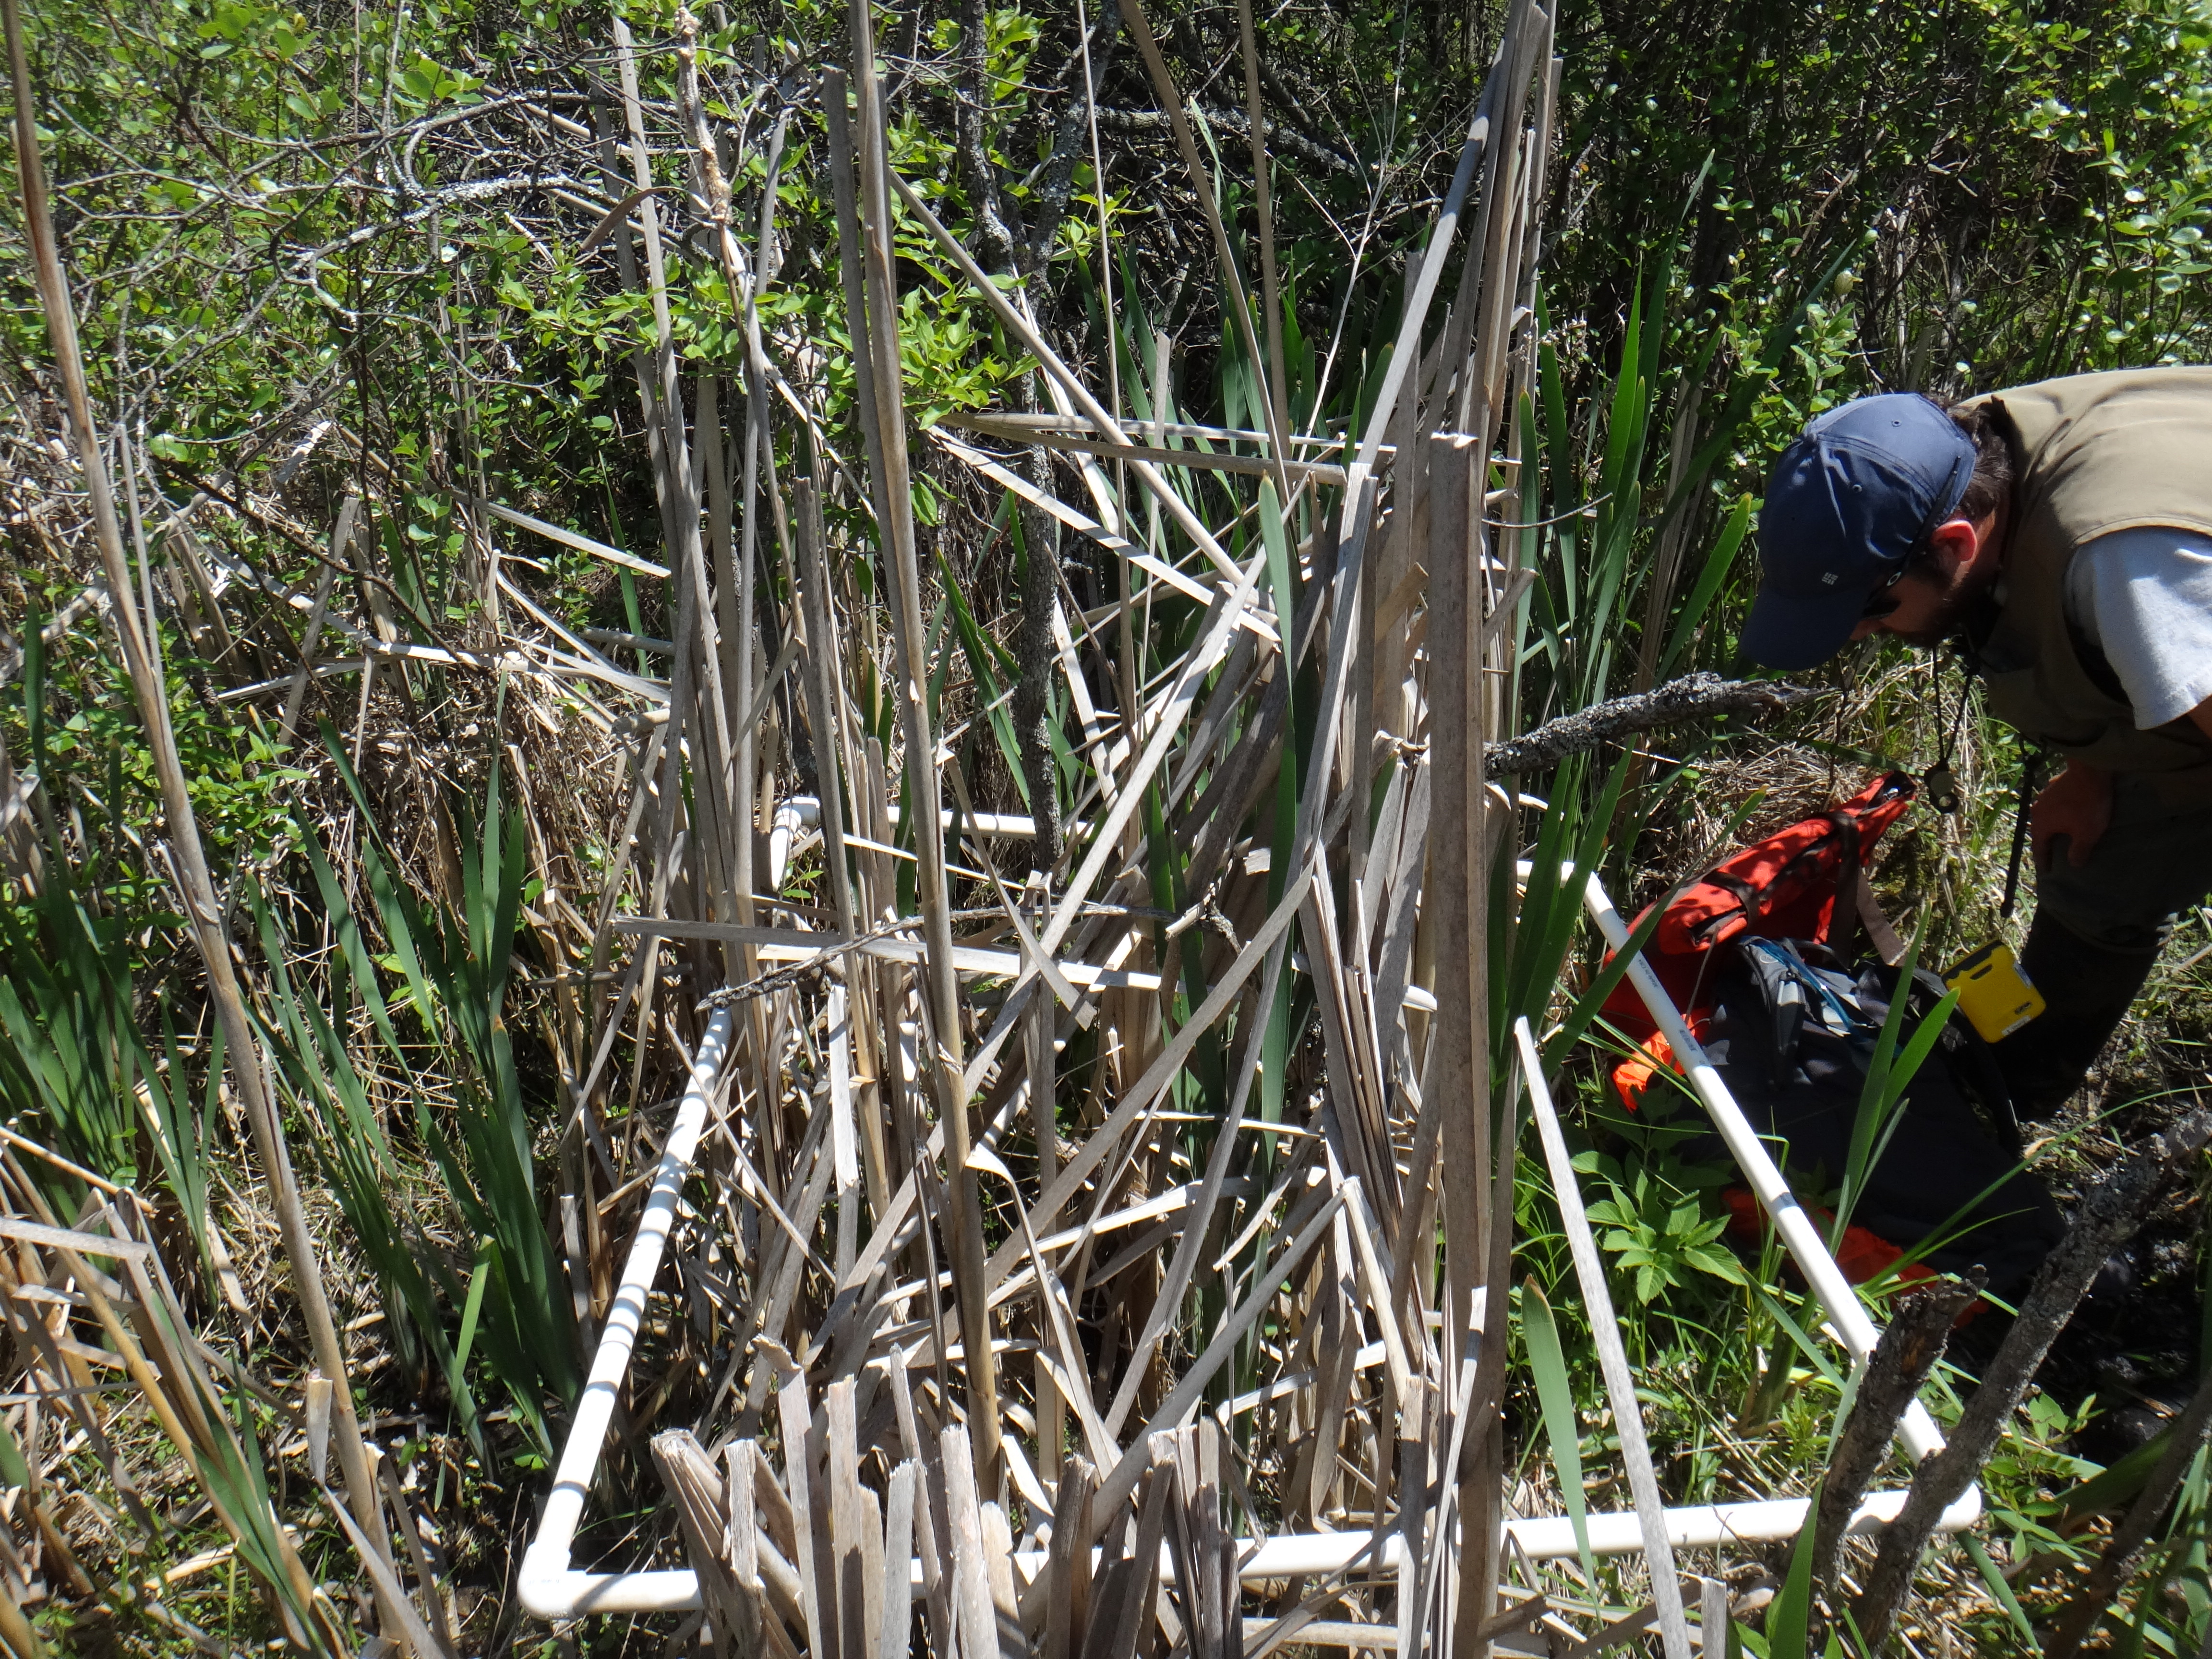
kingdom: Plantae
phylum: Tracheophyta
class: Magnoliopsida
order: Asterales
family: Asteraceae
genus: Eutrochium
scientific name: Eutrochium maculatum
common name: Spotted joe pye weed
